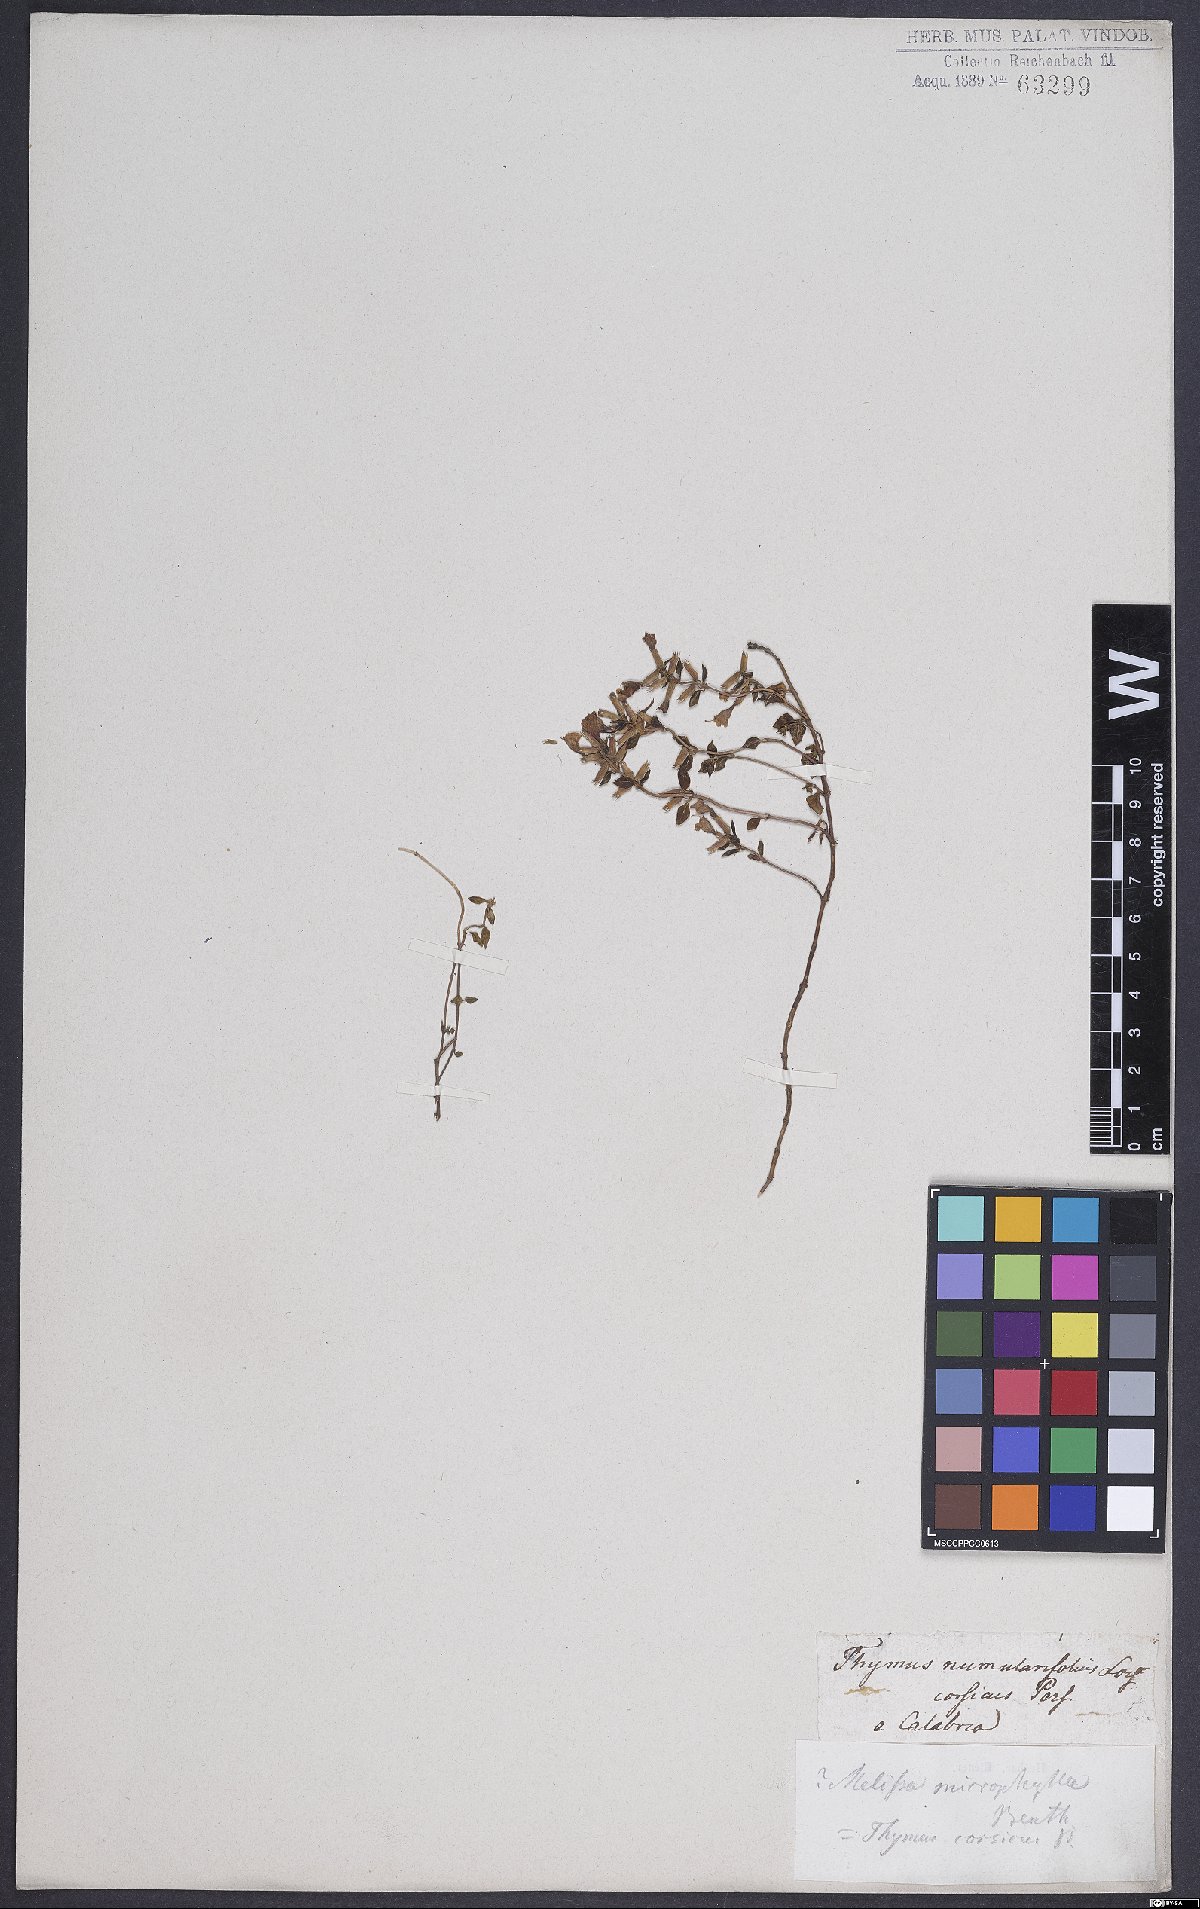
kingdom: Plantae
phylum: Tracheophyta
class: Magnoliopsida
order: Lamiales
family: Lamiaceae
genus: Calamintha
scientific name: Calamintha
